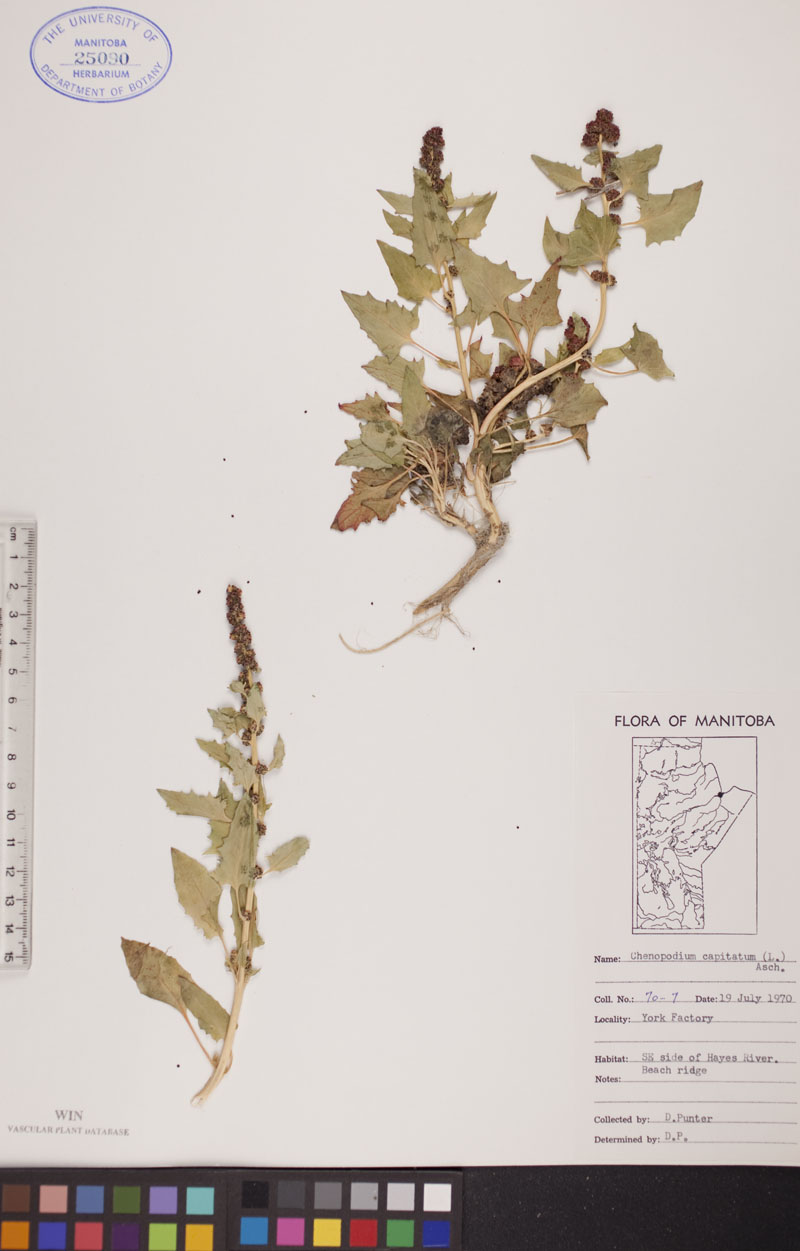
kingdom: Plantae
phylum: Tracheophyta
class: Magnoliopsida
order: Caryophyllales
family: Amaranthaceae
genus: Blitum
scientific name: Blitum capitatum
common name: Strawberry-blight
